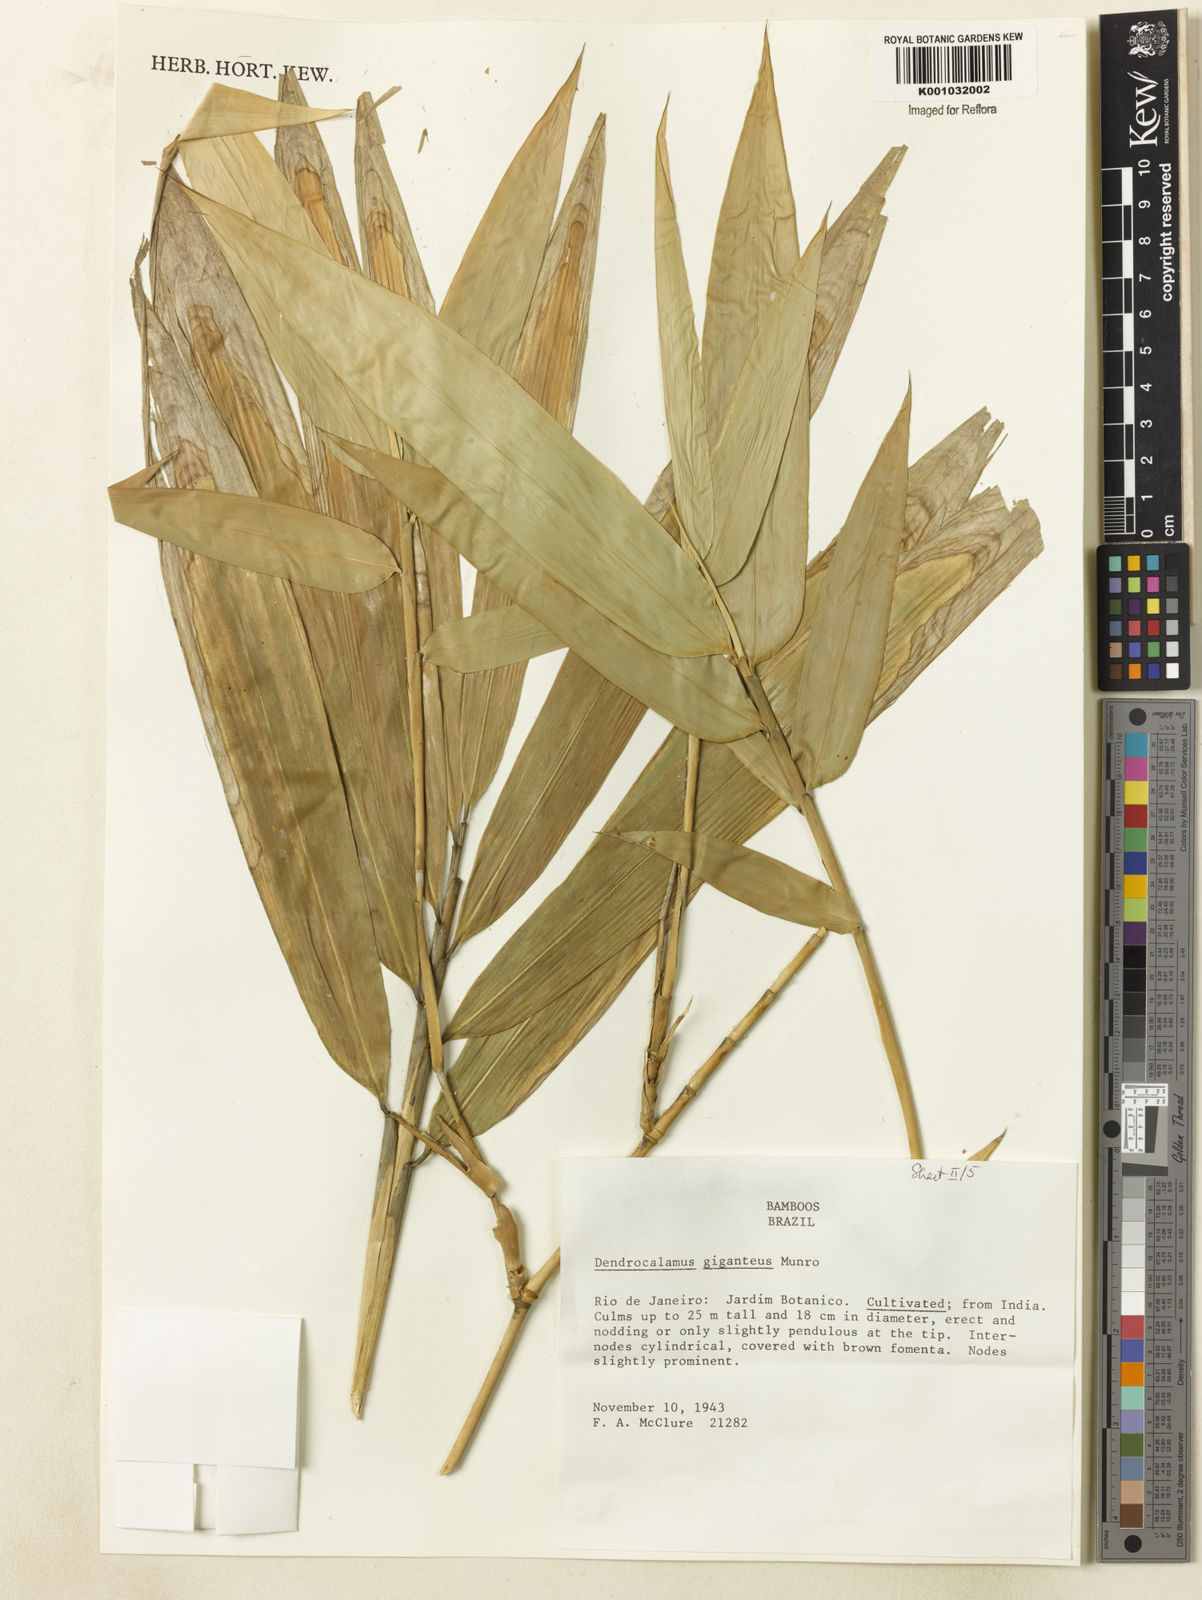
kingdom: Plantae
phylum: Tracheophyta
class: Liliopsida
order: Poales
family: Poaceae
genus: Dendrocalamus
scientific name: Dendrocalamus giganteus
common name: Giant bamboo
